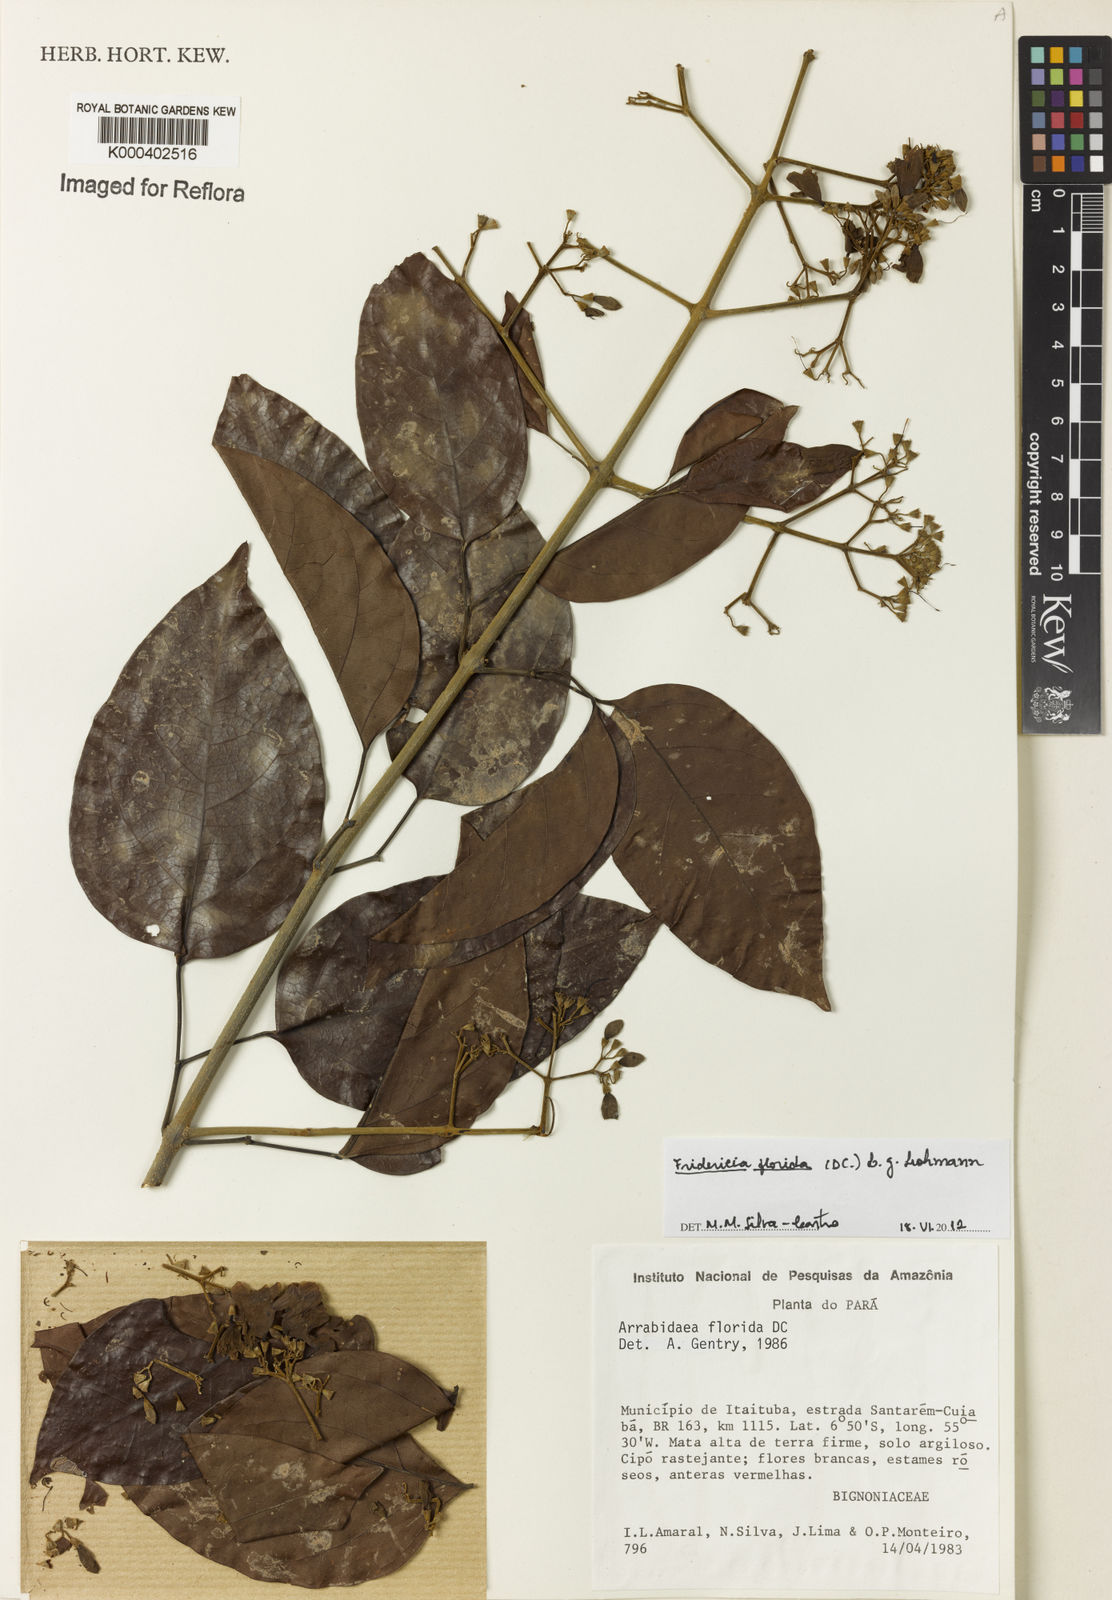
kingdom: Plantae
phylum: Tracheophyta
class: Magnoliopsida
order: Lamiales
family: Bignoniaceae
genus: Fridericia
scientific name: Fridericia florida
